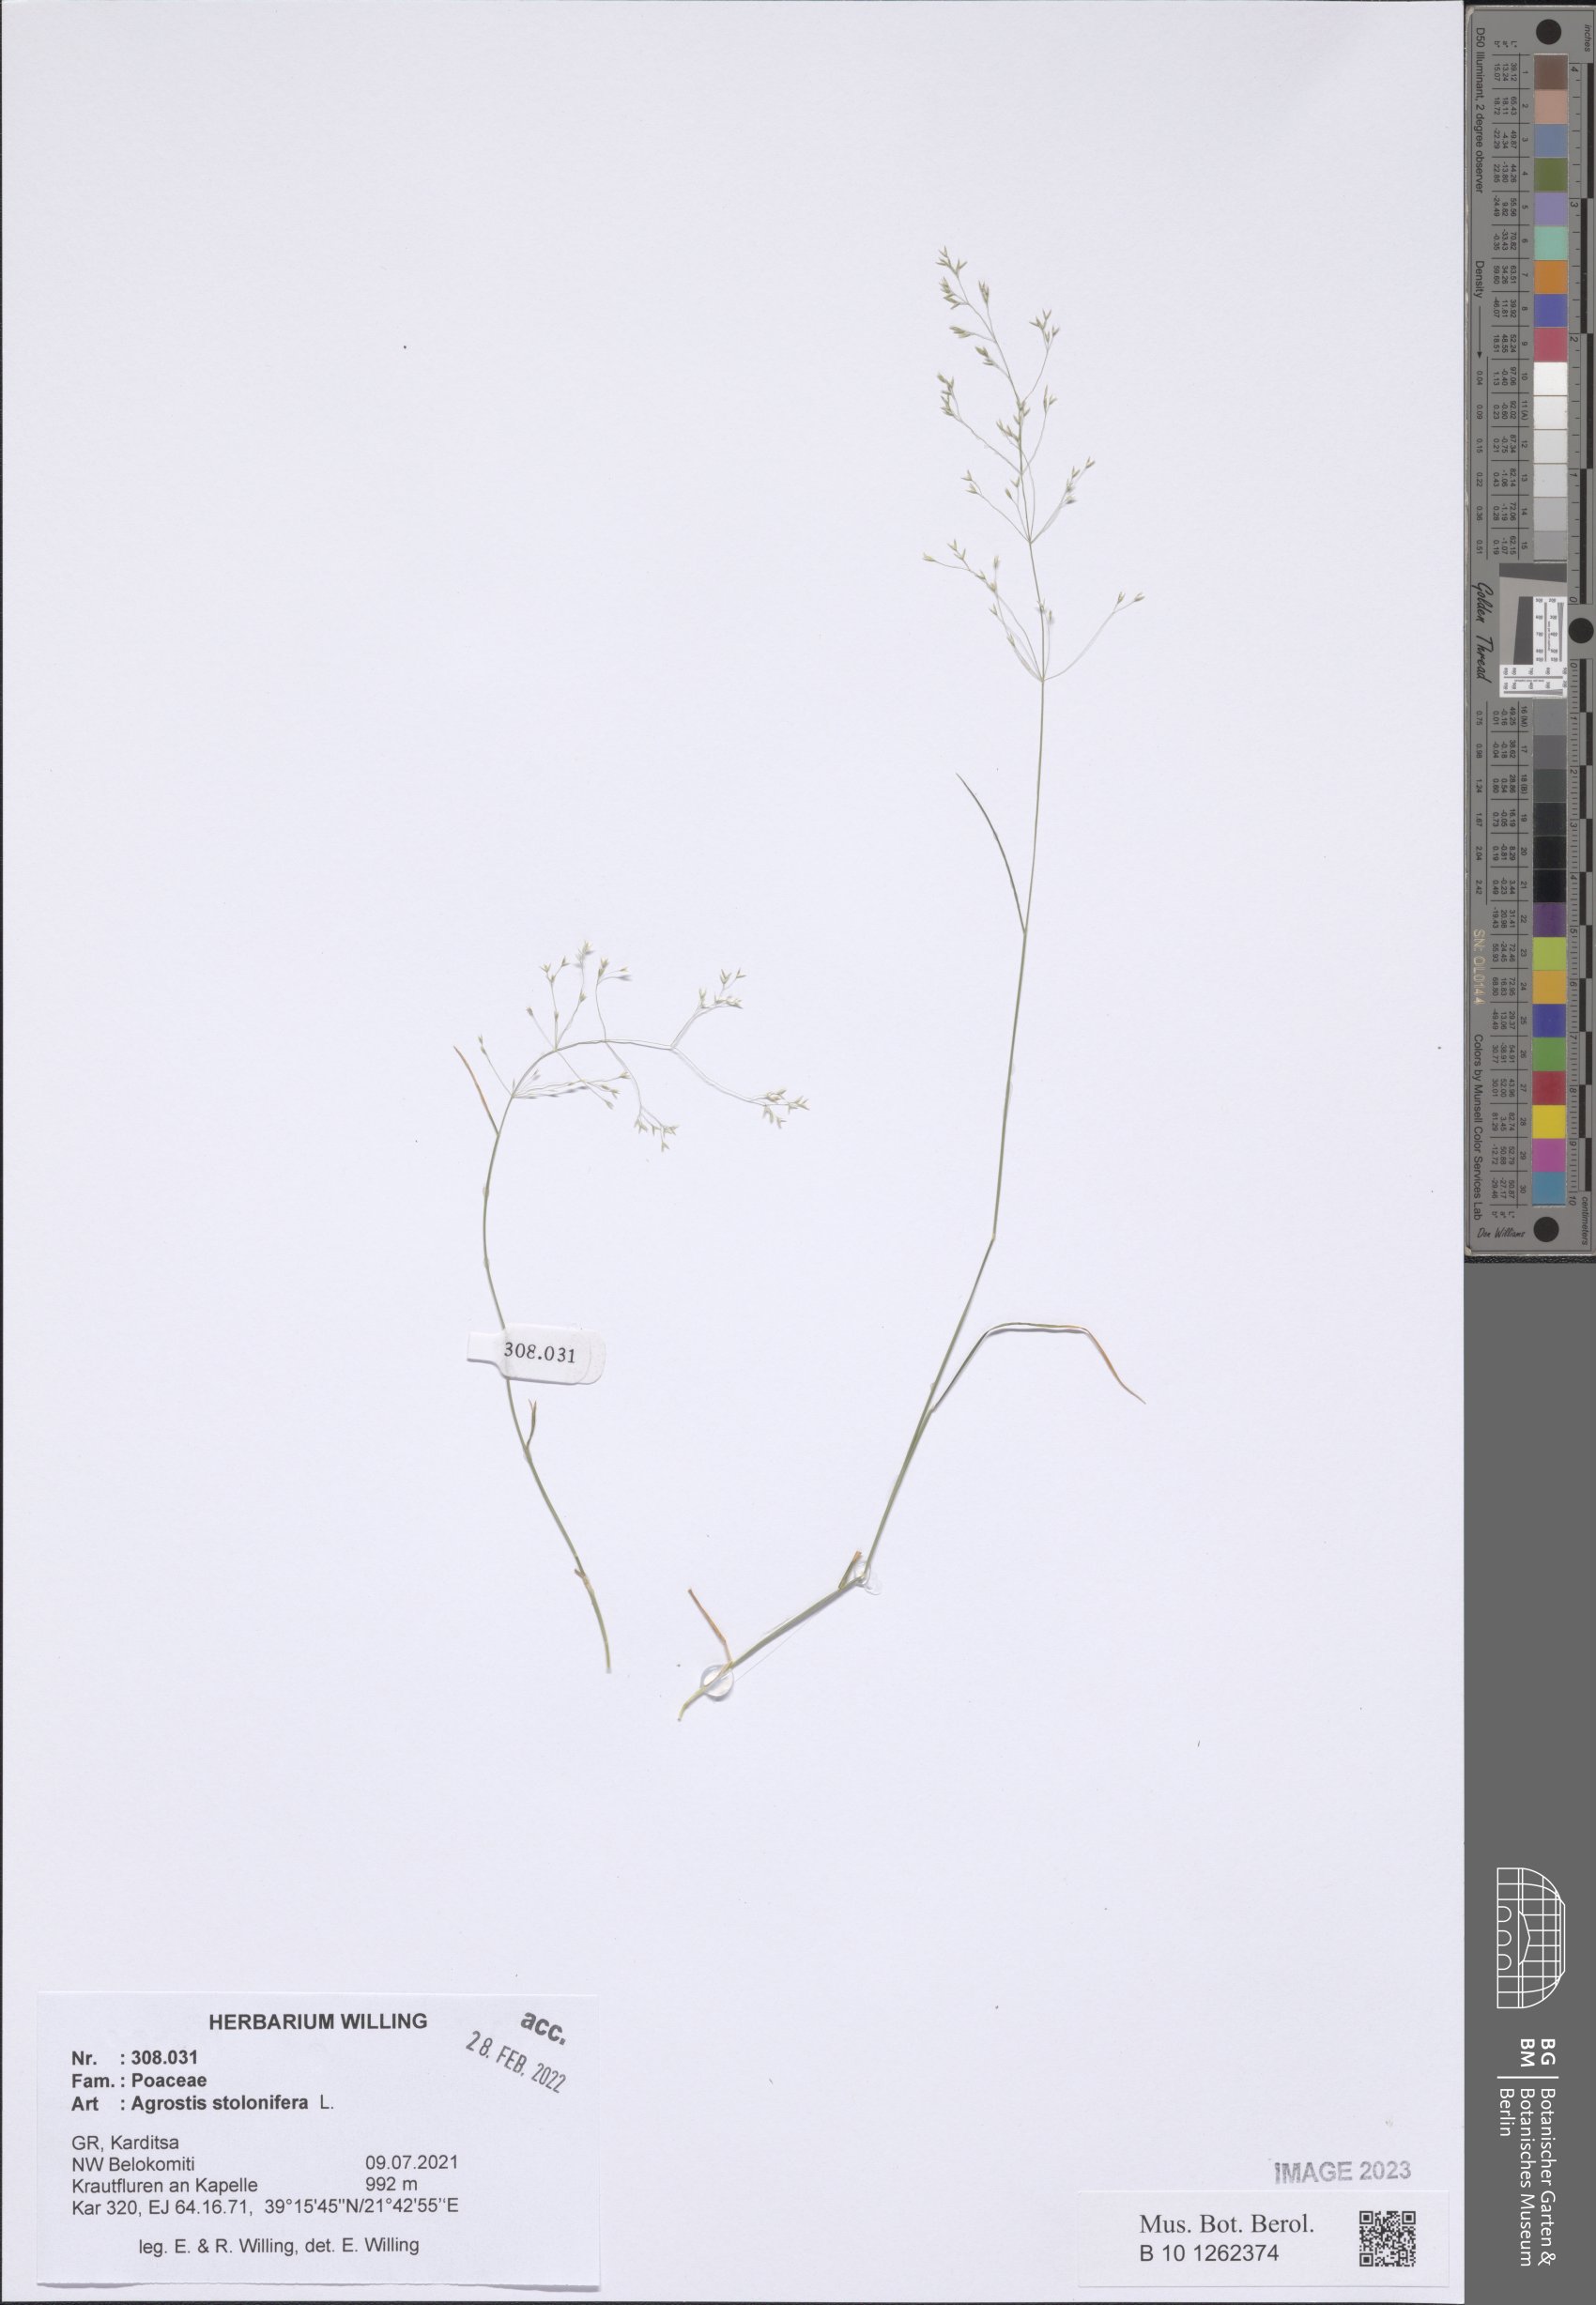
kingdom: Plantae
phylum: Tracheophyta
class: Liliopsida
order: Poales
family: Poaceae
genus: Agrostis
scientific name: Agrostis stolonifera
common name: Creeping bentgrass
